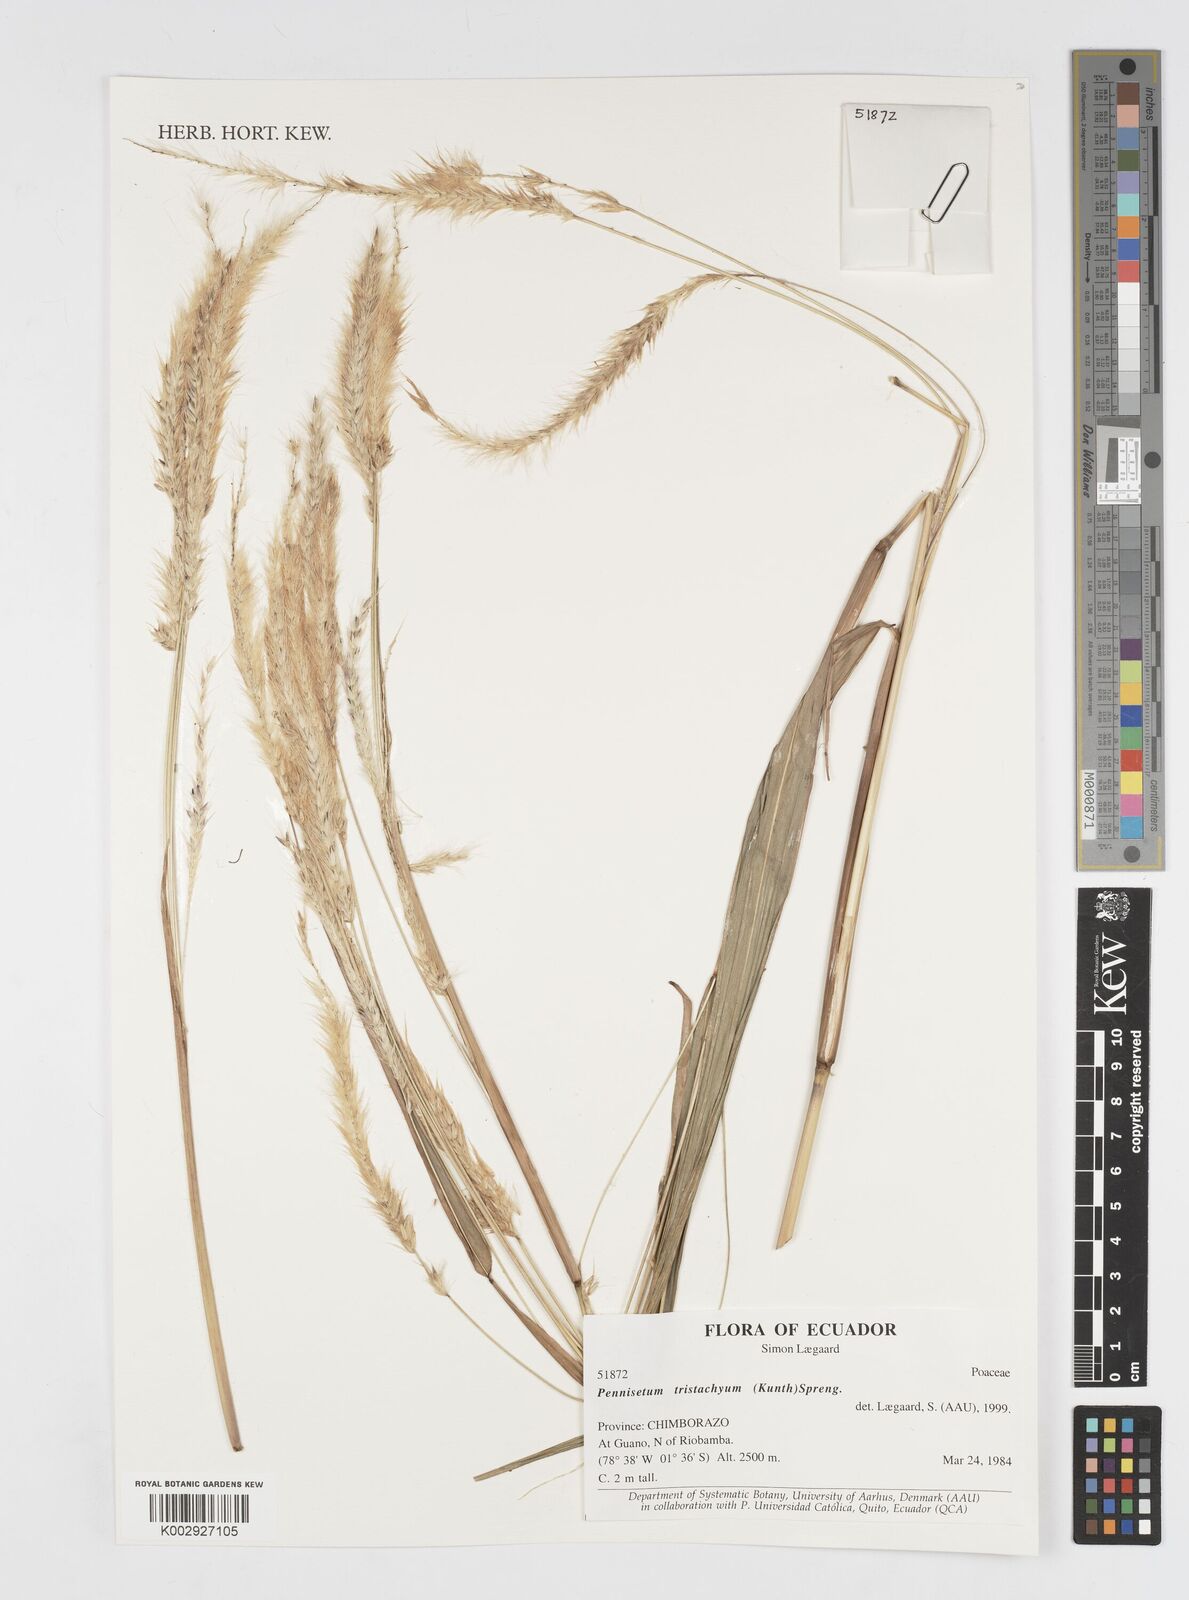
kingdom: Plantae
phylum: Tracheophyta
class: Liliopsida
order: Poales
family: Poaceae
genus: Cenchrus
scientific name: Cenchrus tristachyus
